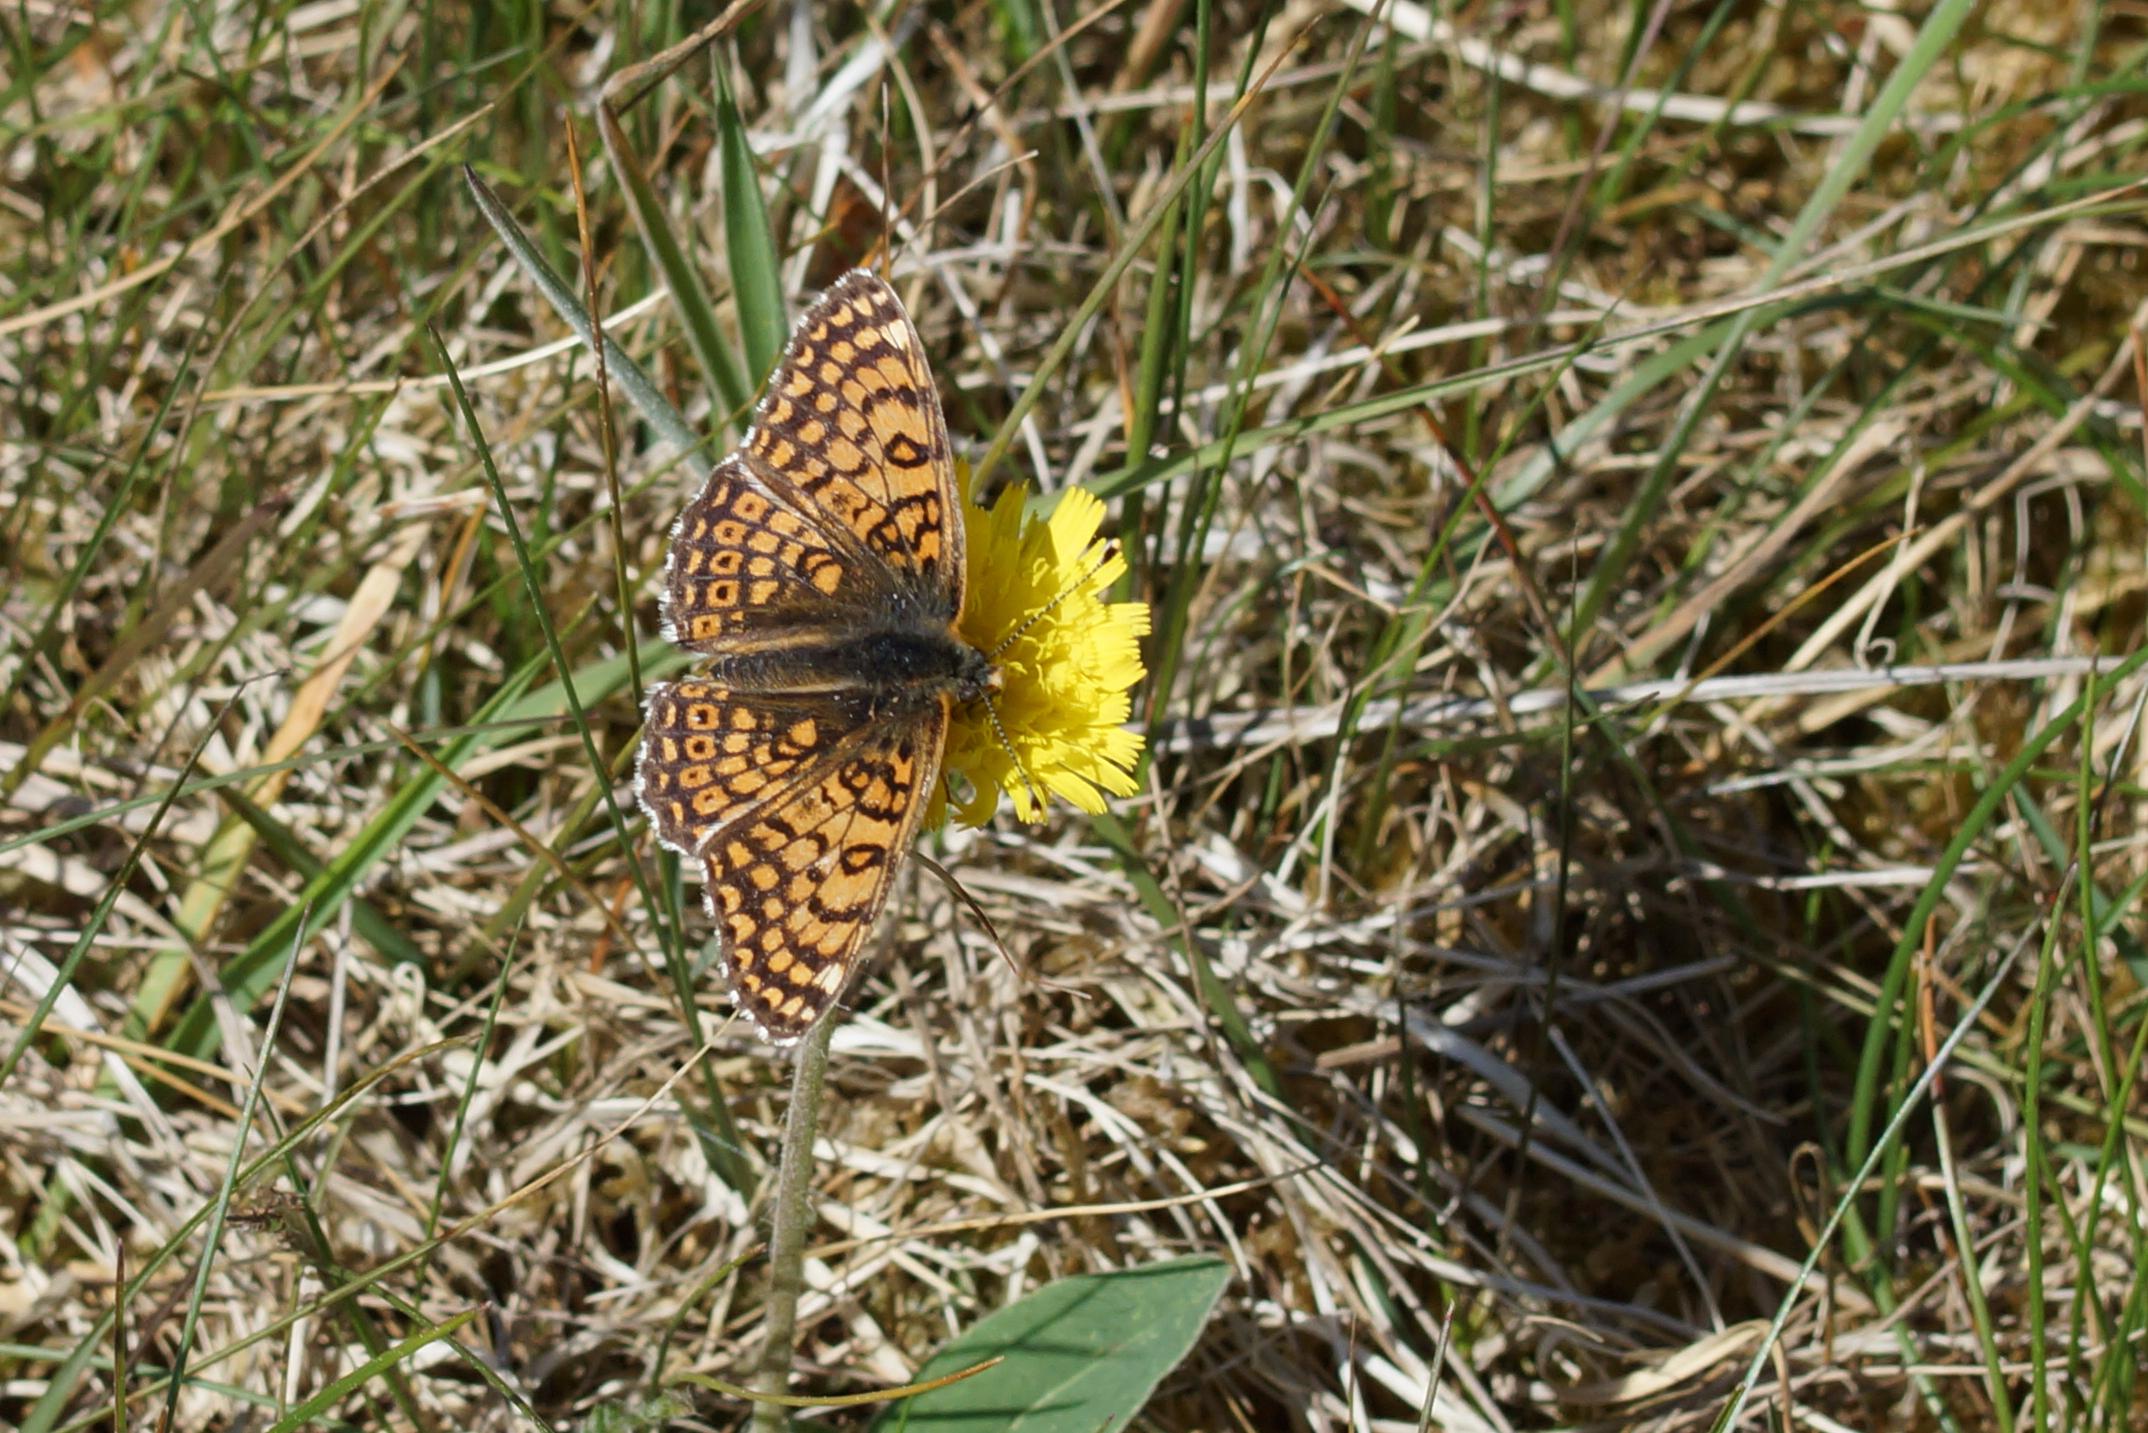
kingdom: Animalia
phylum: Arthropoda
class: Insecta
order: Lepidoptera
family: Nymphalidae
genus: Melitaea
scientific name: Melitaea cinxia
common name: Okkergul pletvinge
